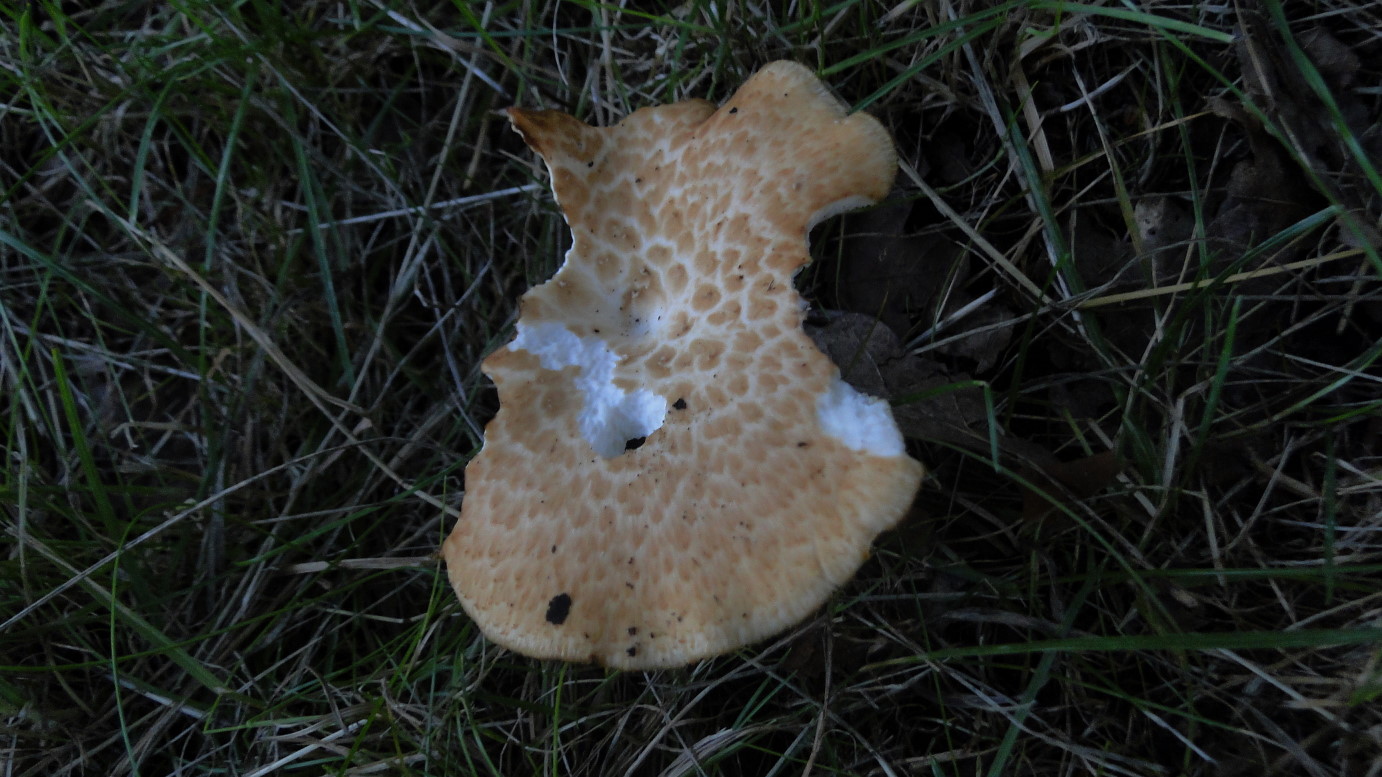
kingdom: Fungi
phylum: Basidiomycota
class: Agaricomycetes
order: Polyporales
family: Polyporaceae
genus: Polyporus
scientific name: Polyporus tuberaster
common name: knoldet stilkporesvamp
